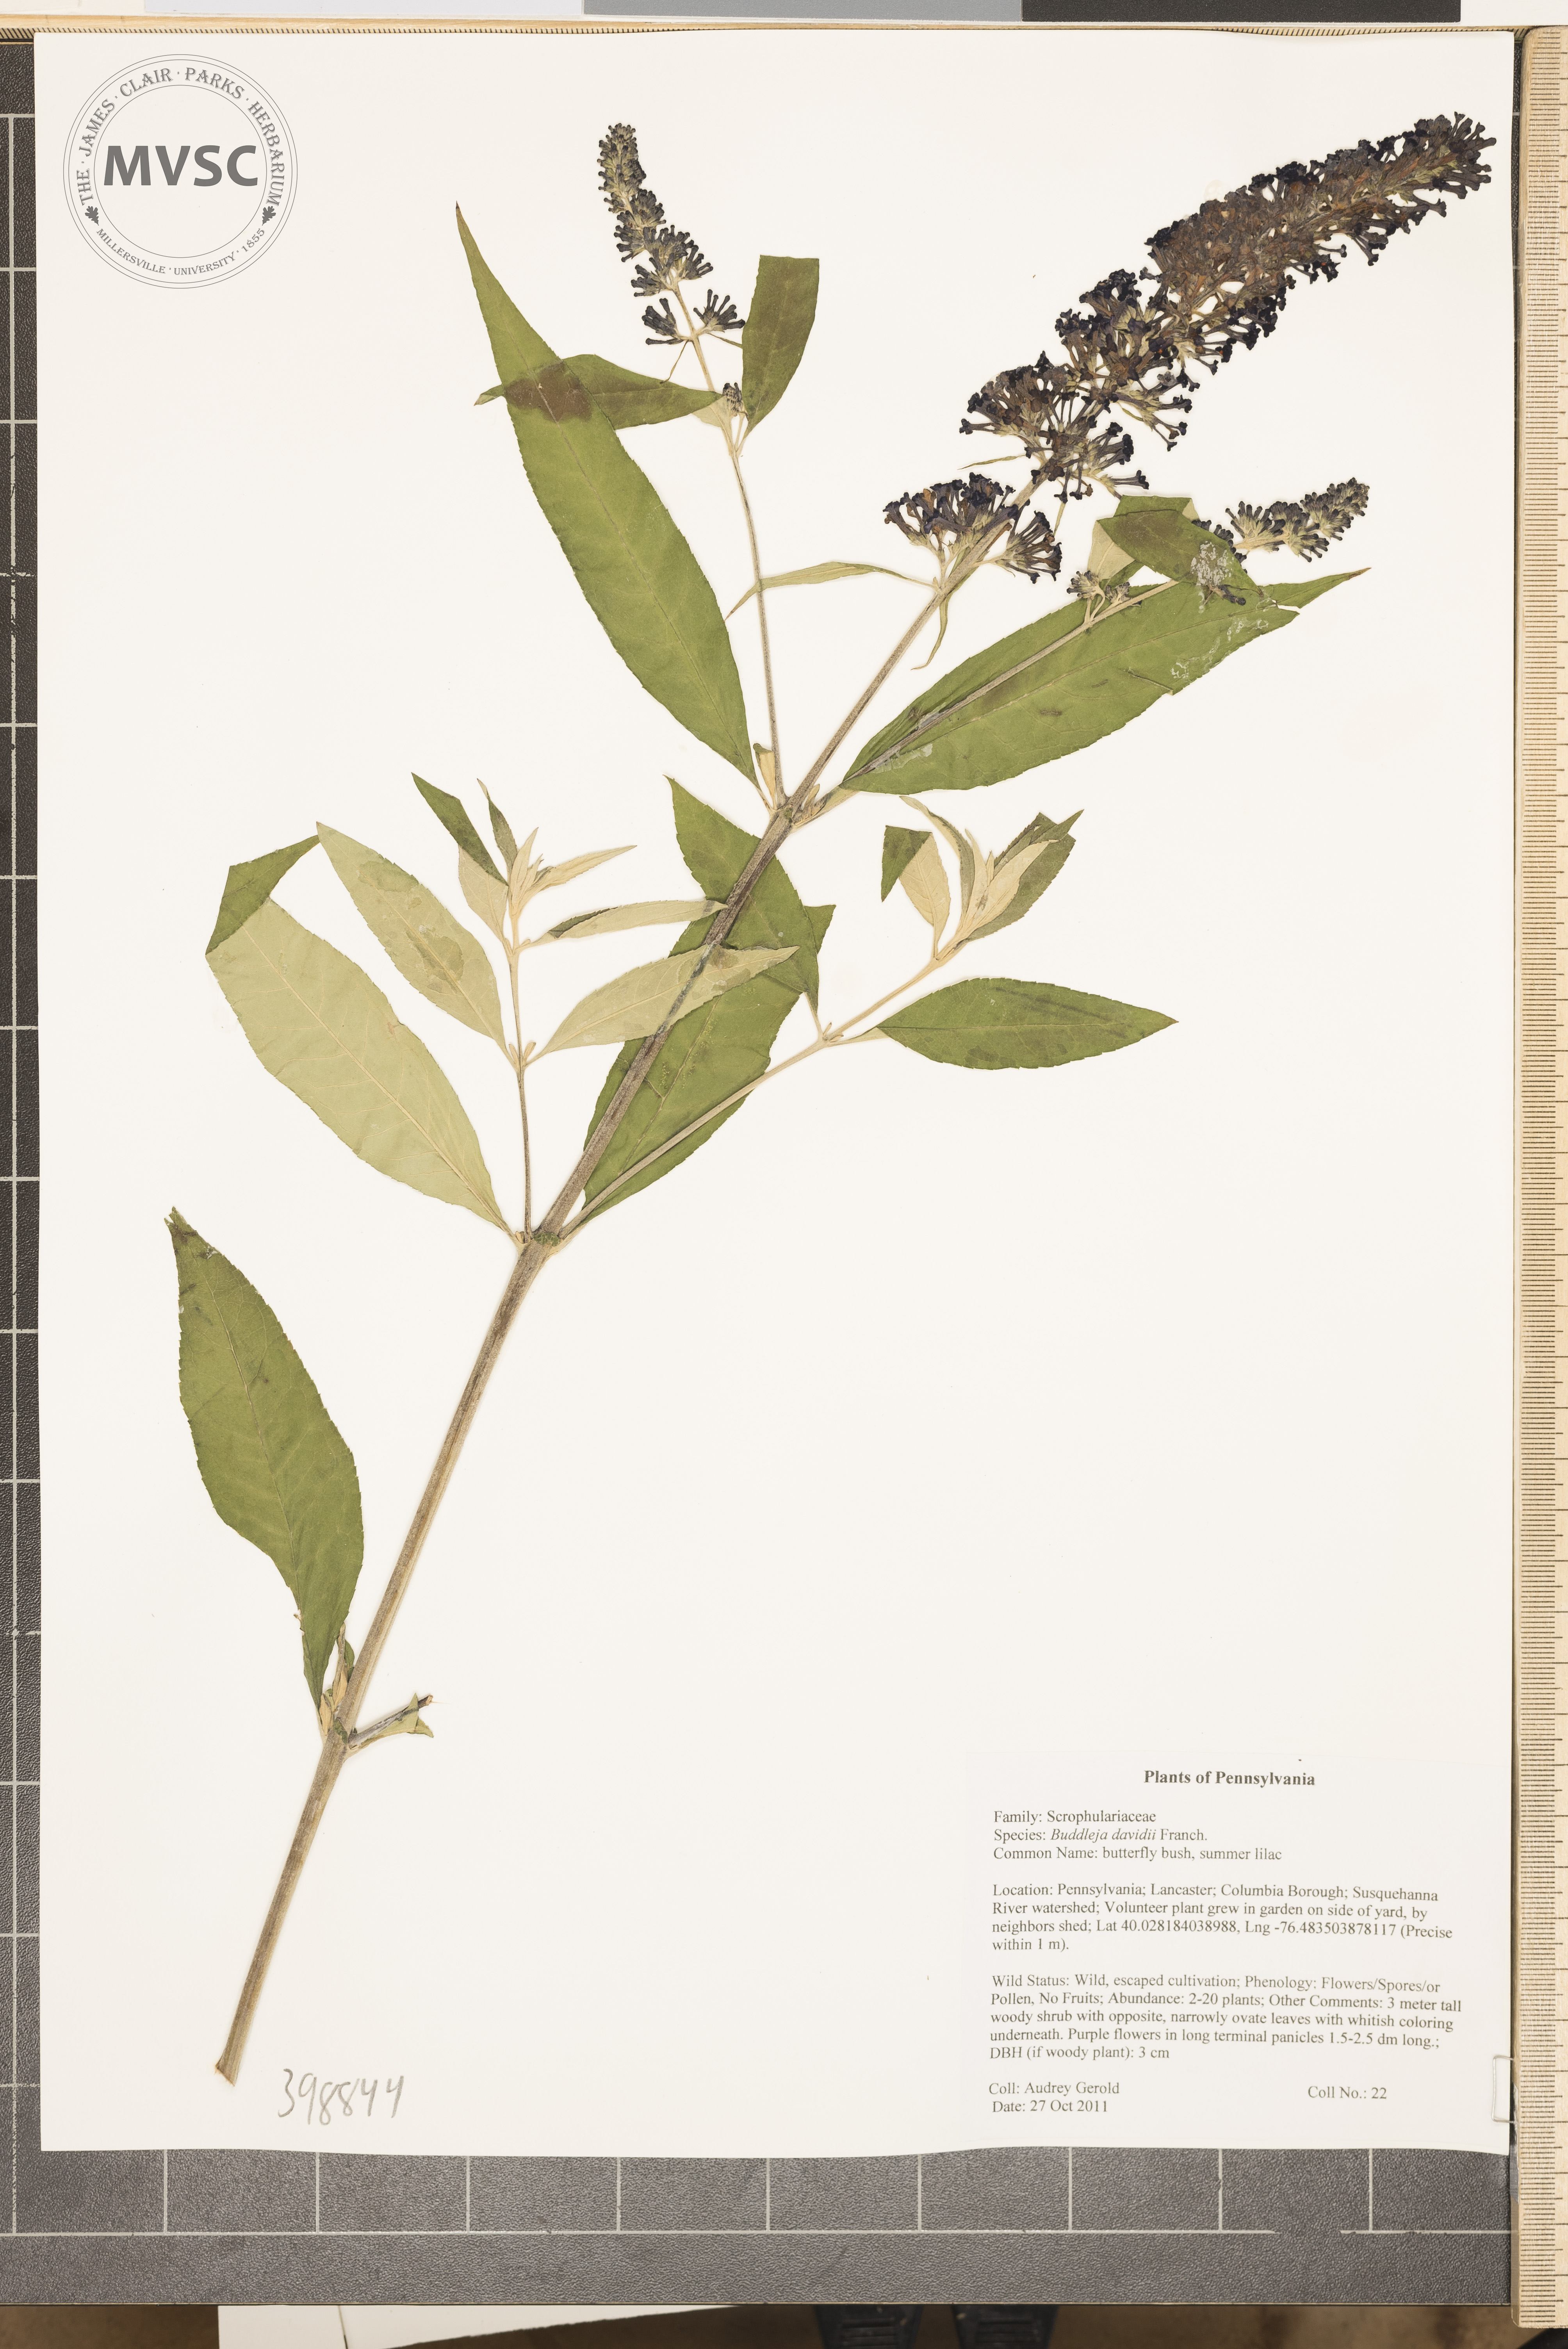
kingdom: Plantae
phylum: Tracheophyta
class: Magnoliopsida
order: Lamiales
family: Scrophulariaceae
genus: Buddleja
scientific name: Buddleja davidii
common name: Butterfly-bush
